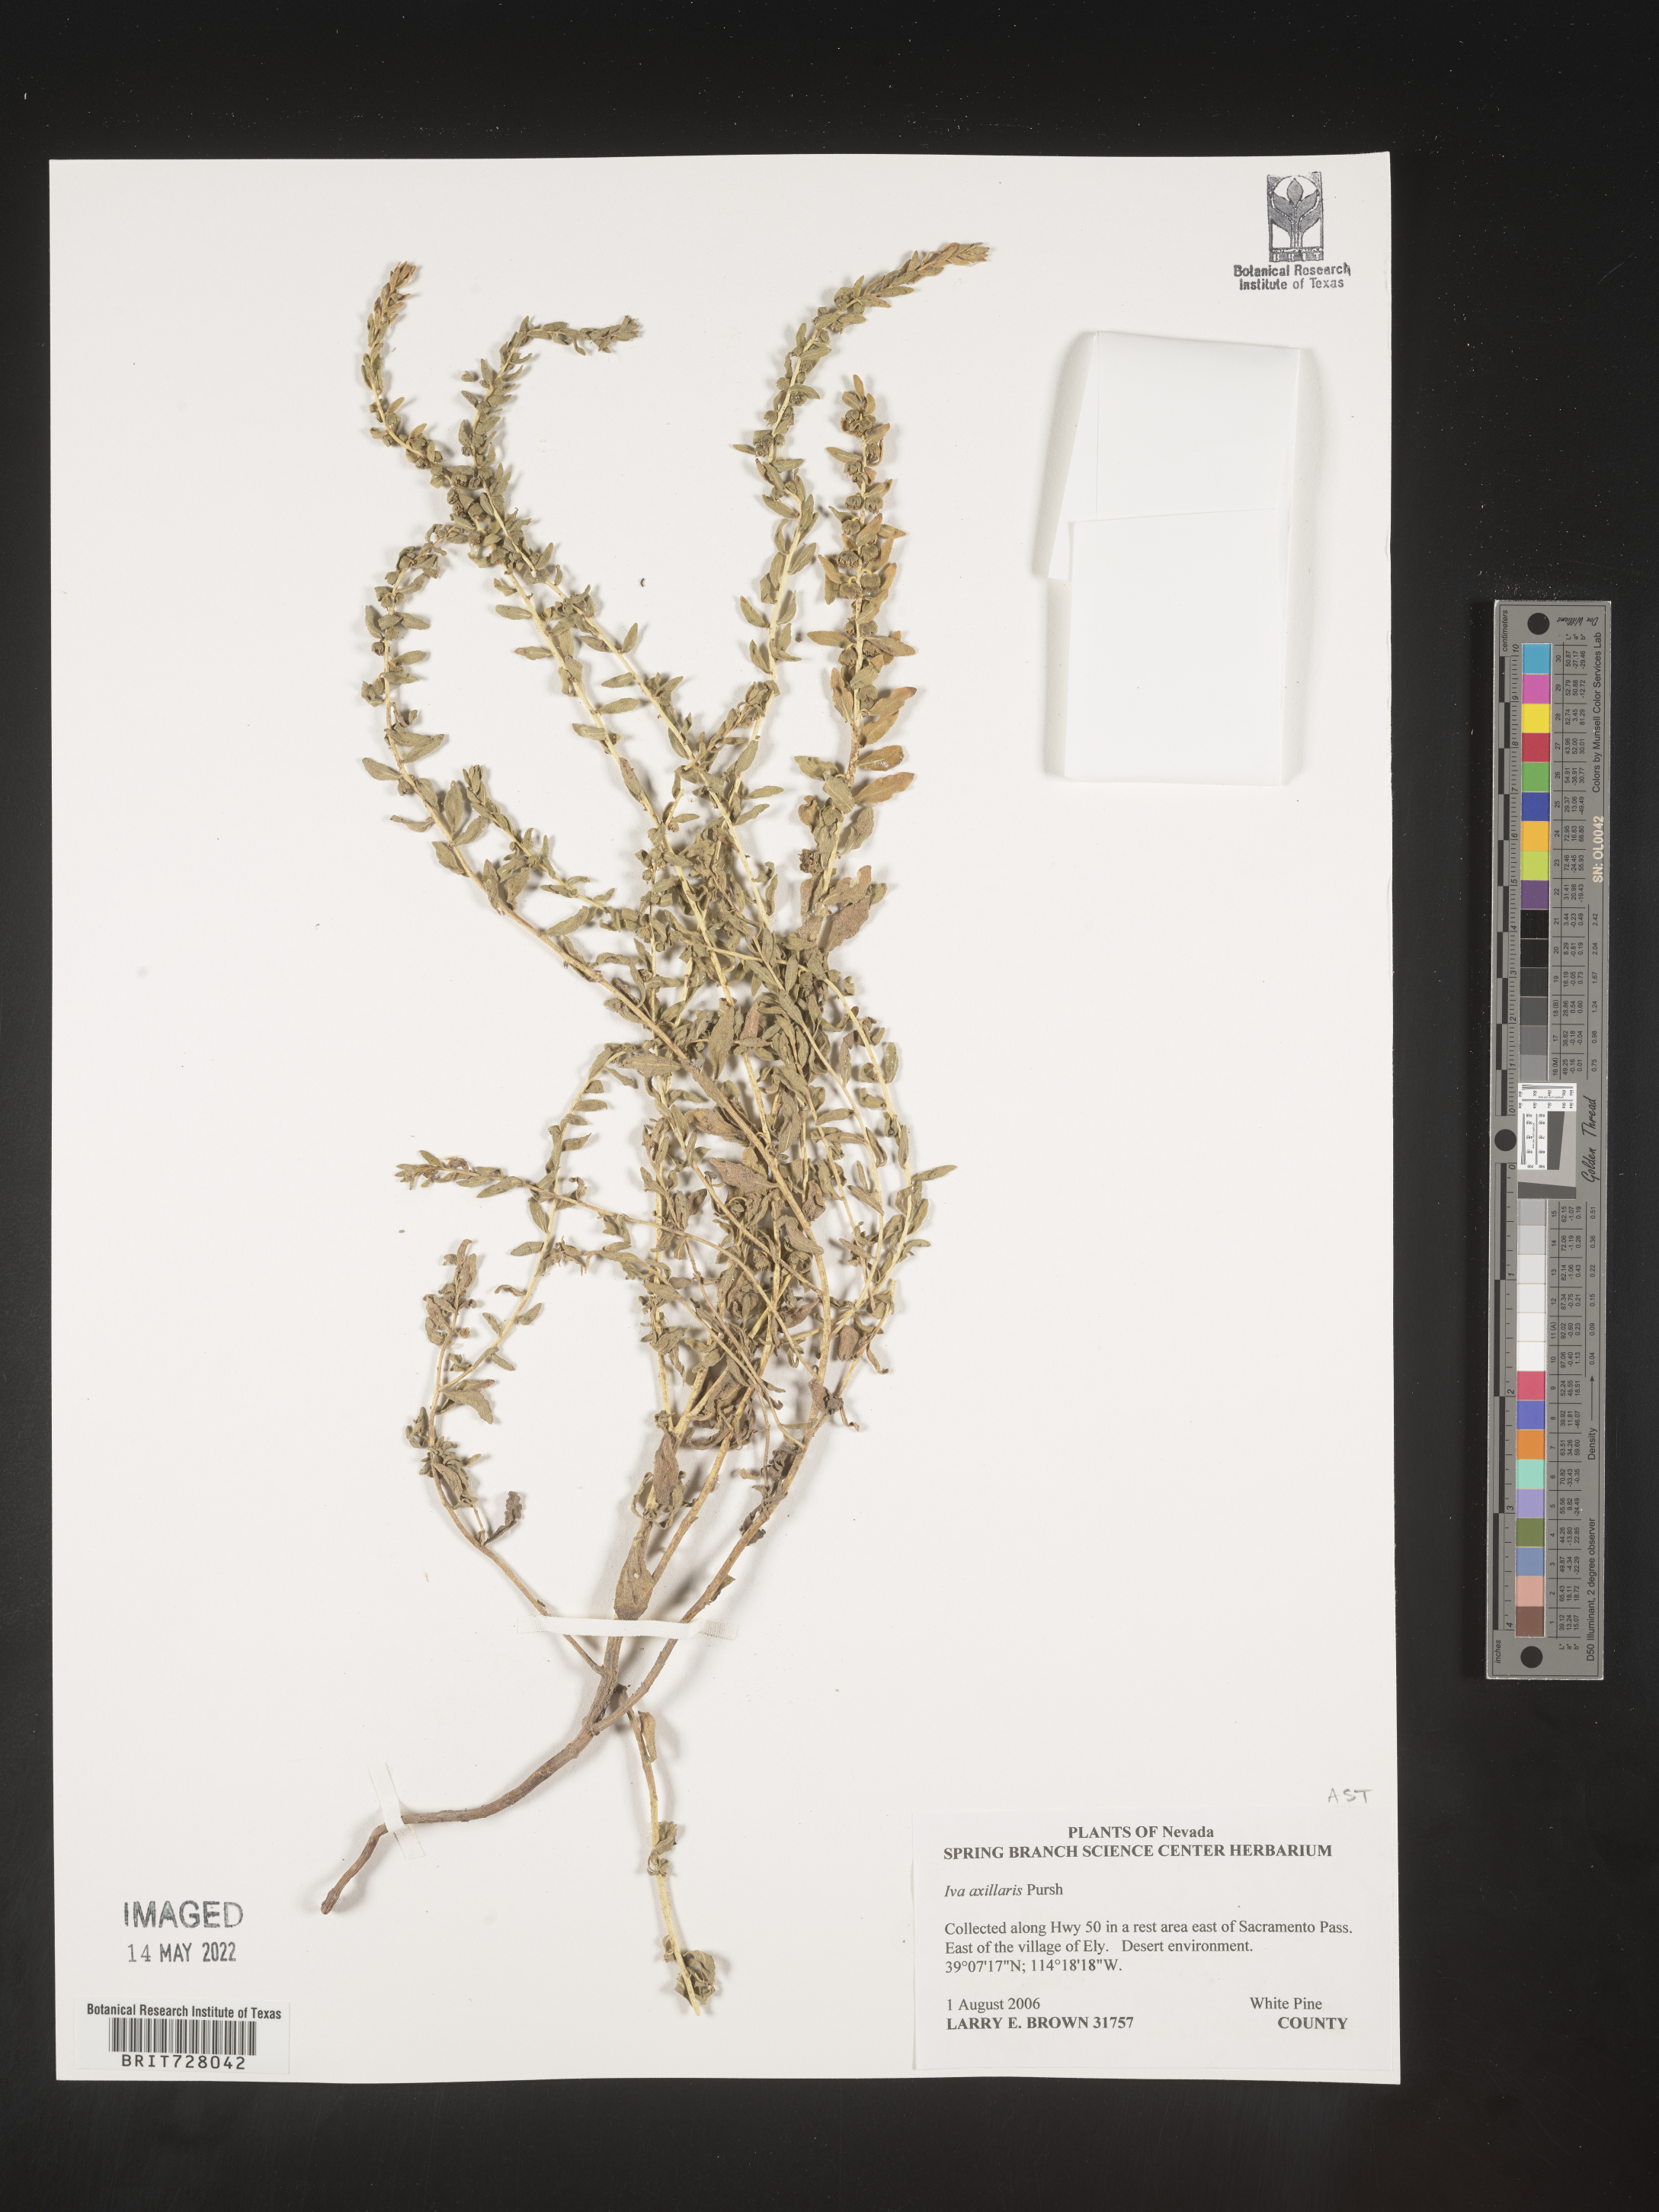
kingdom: Plantae
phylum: Tracheophyta
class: Magnoliopsida
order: Asterales
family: Asteraceae
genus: Iva
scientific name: Iva axillaris
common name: Poverty sumpweed
